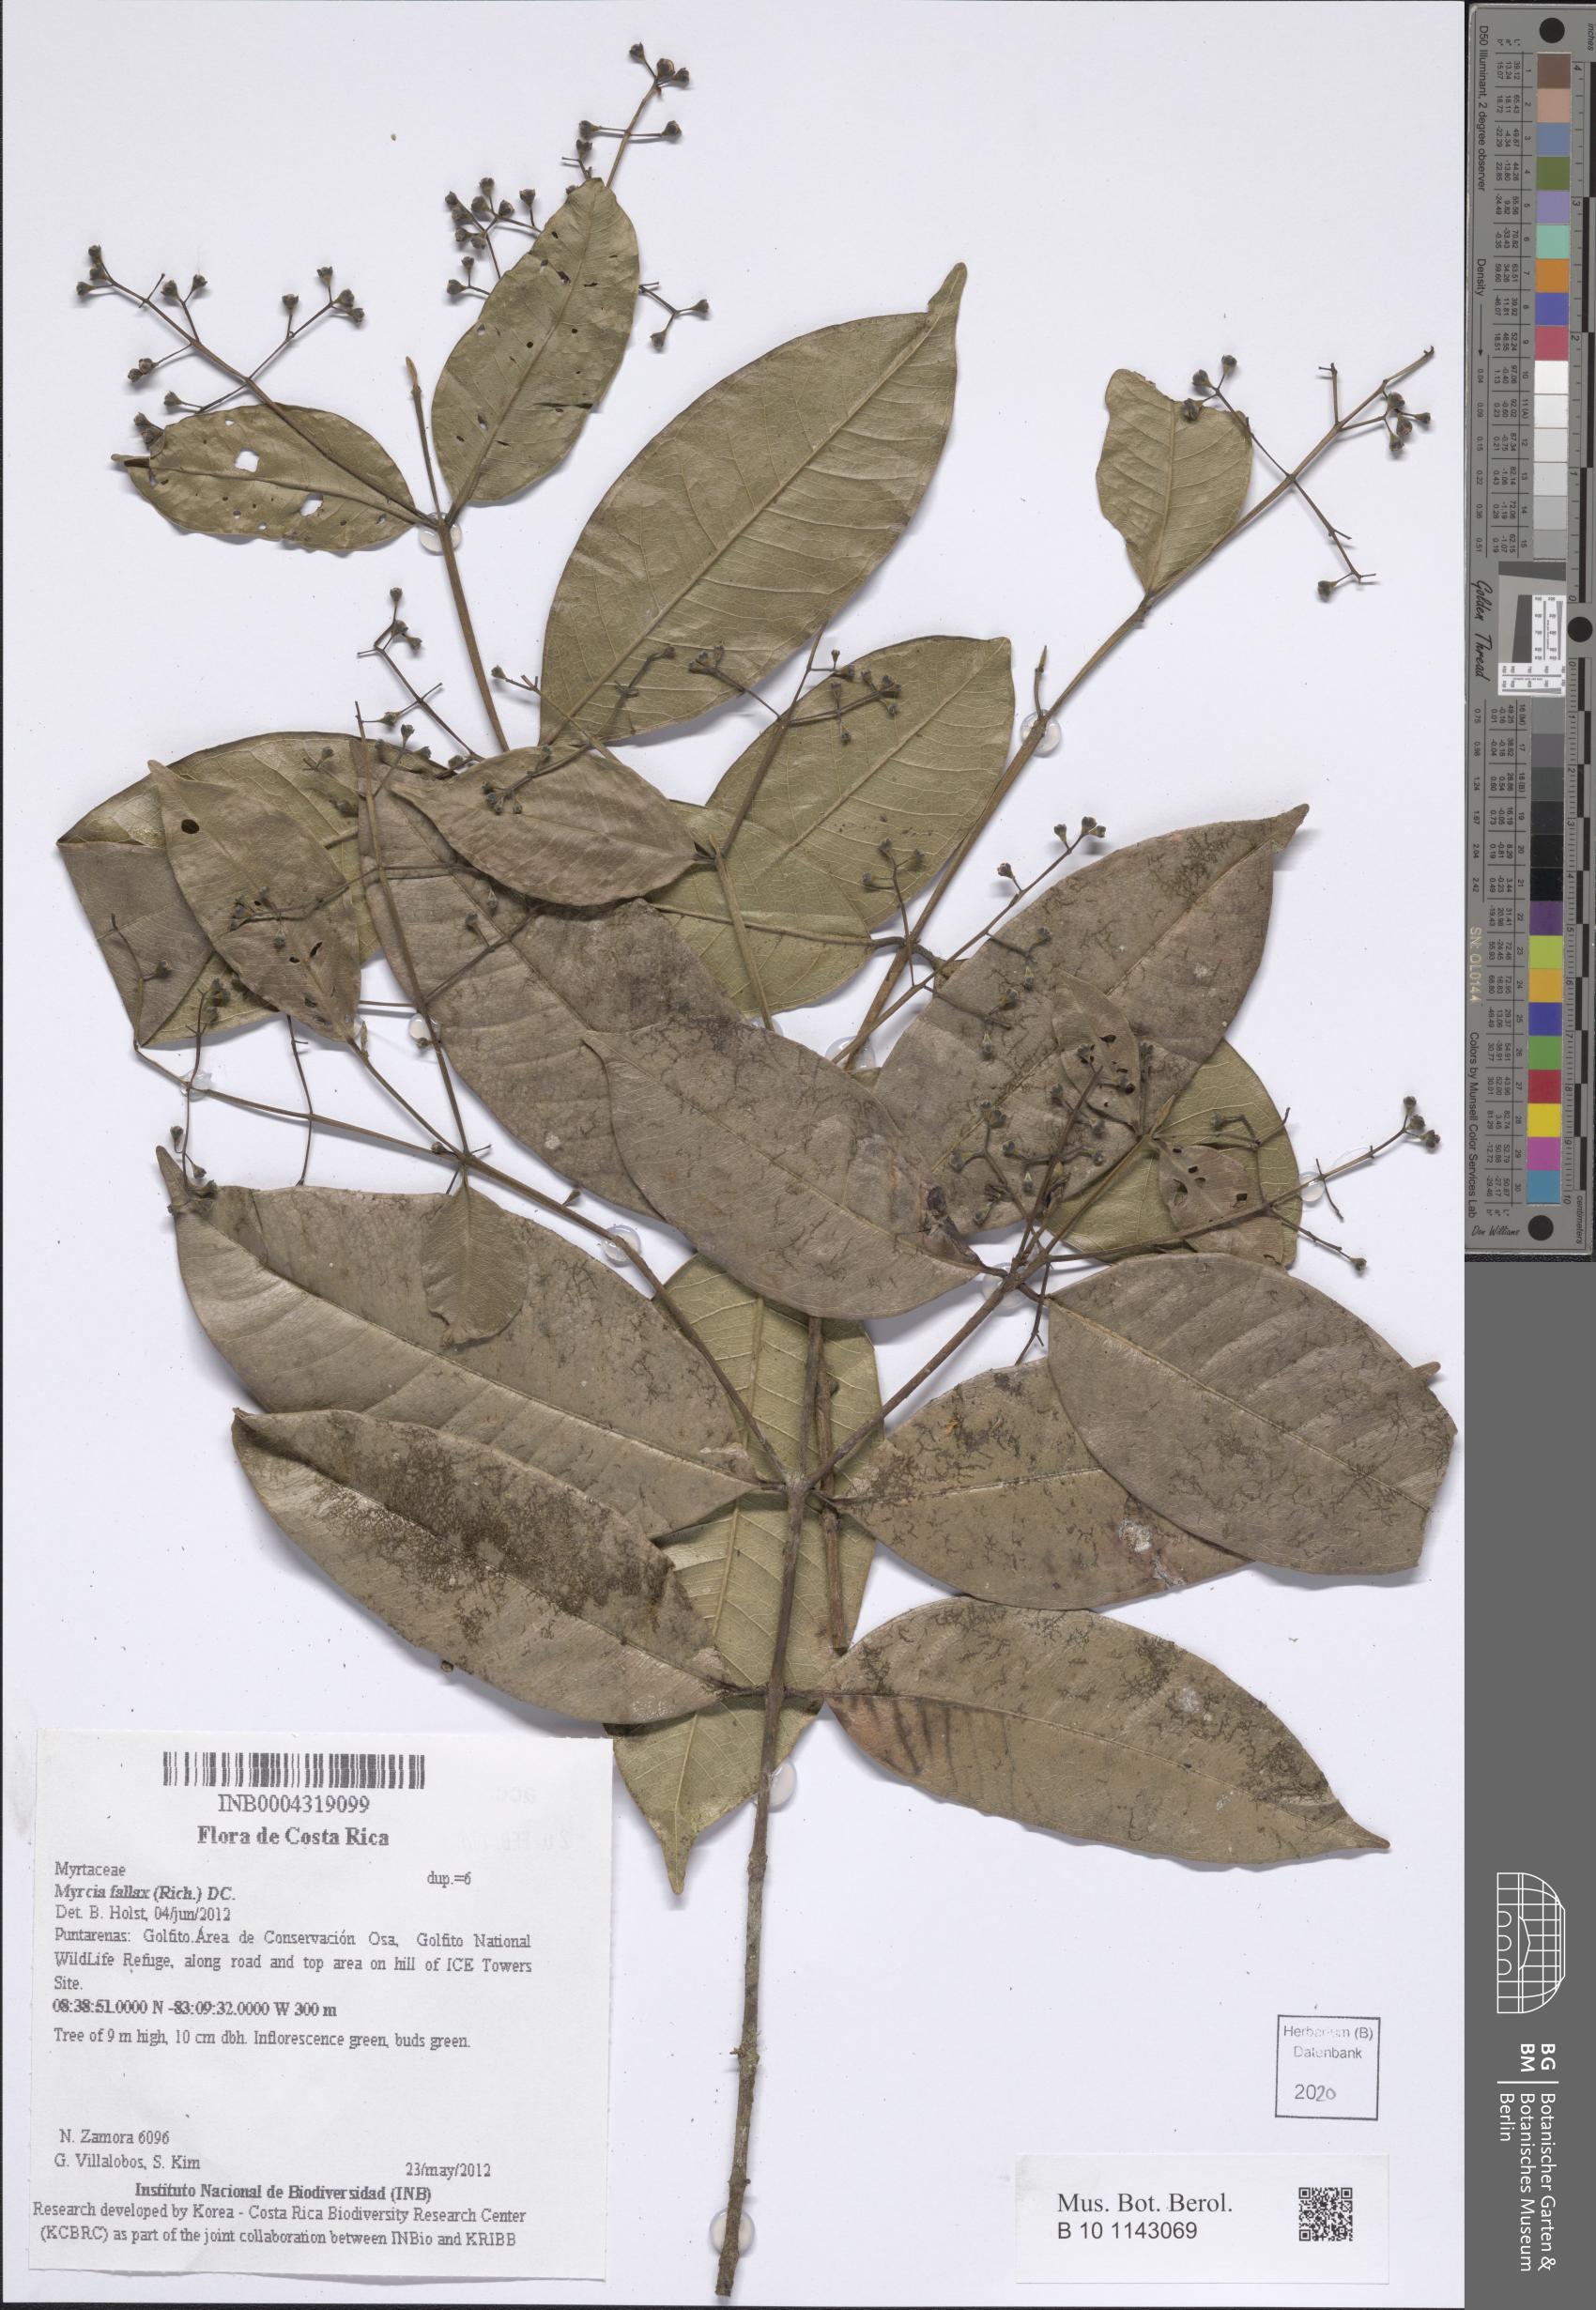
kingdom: Plantae
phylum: Tracheophyta
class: Magnoliopsida
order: Myrtales
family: Myrtaceae
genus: Myrcia
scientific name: Myrcia splendens
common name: Surinam cherry
